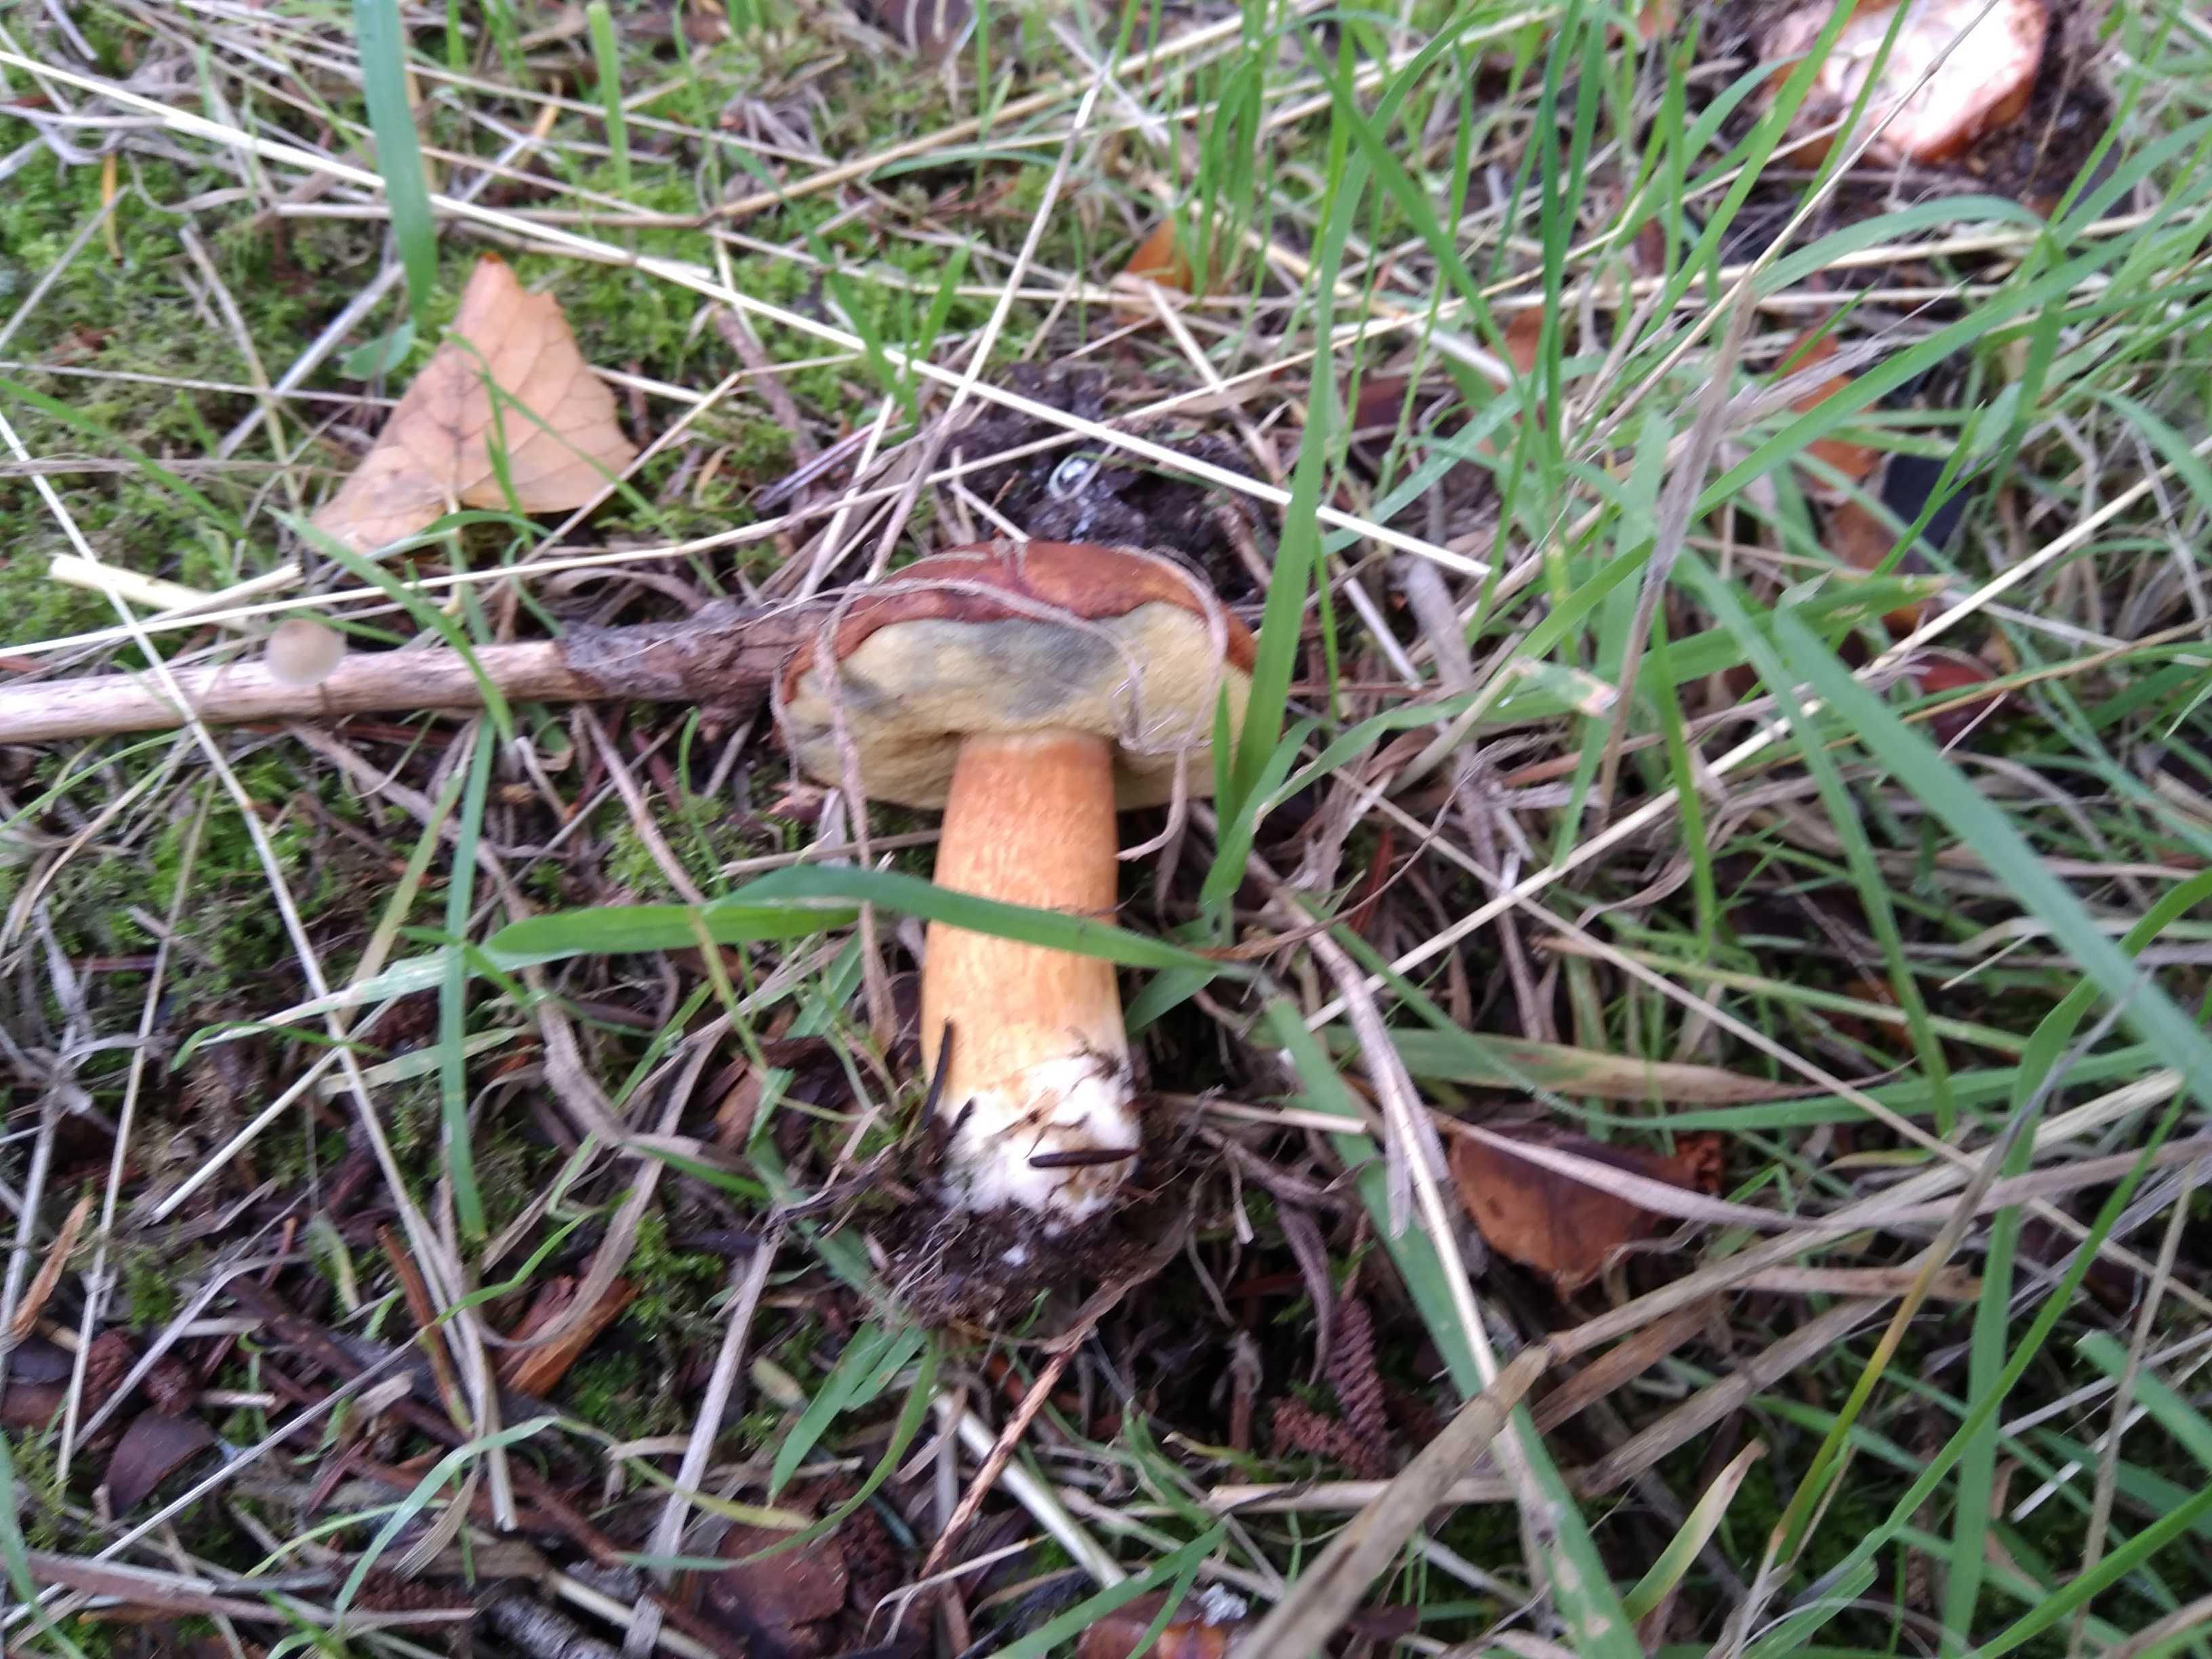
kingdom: Fungi
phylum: Basidiomycota
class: Agaricomycetes
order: Boletales
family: Boletaceae
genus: Imleria
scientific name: Imleria badia
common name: brunstokket rørhat
